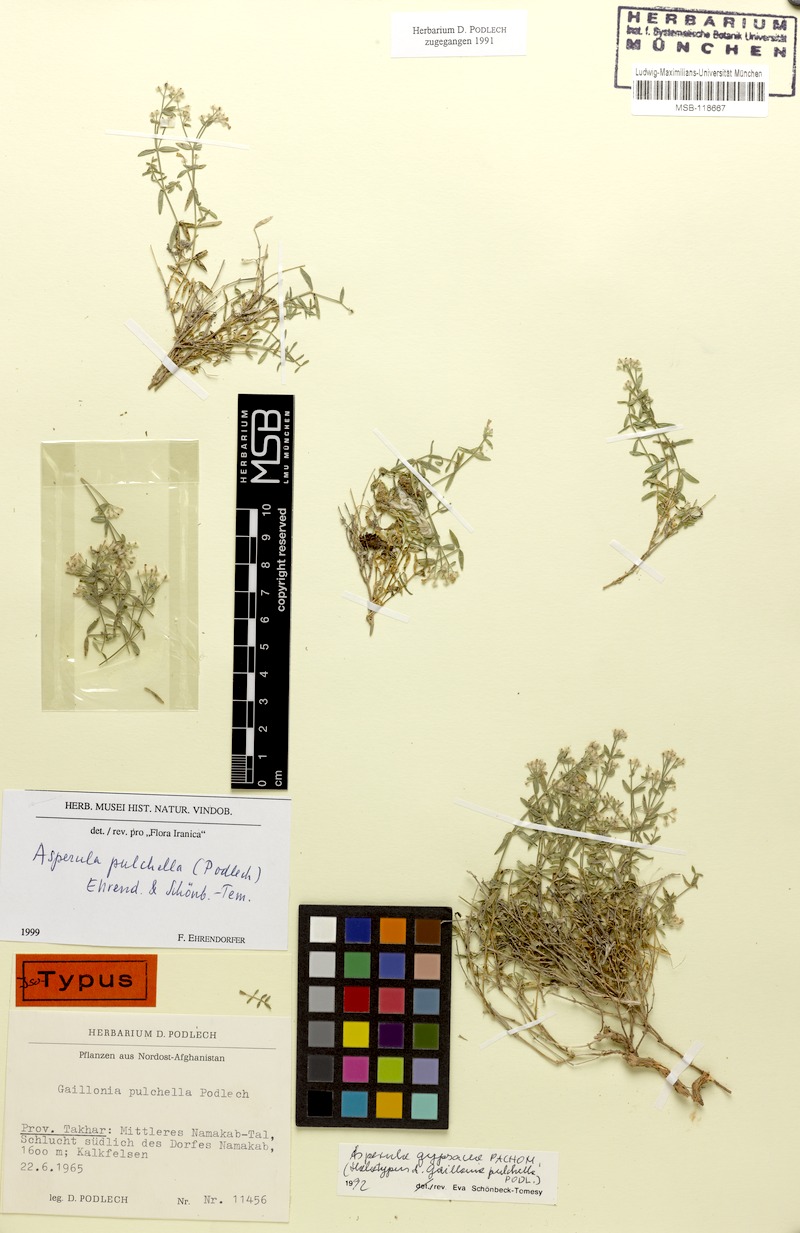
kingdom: Plantae
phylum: Tracheophyta
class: Magnoliopsida
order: Gentianales
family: Rubiaceae
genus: Asperula
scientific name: Asperula pulchella
